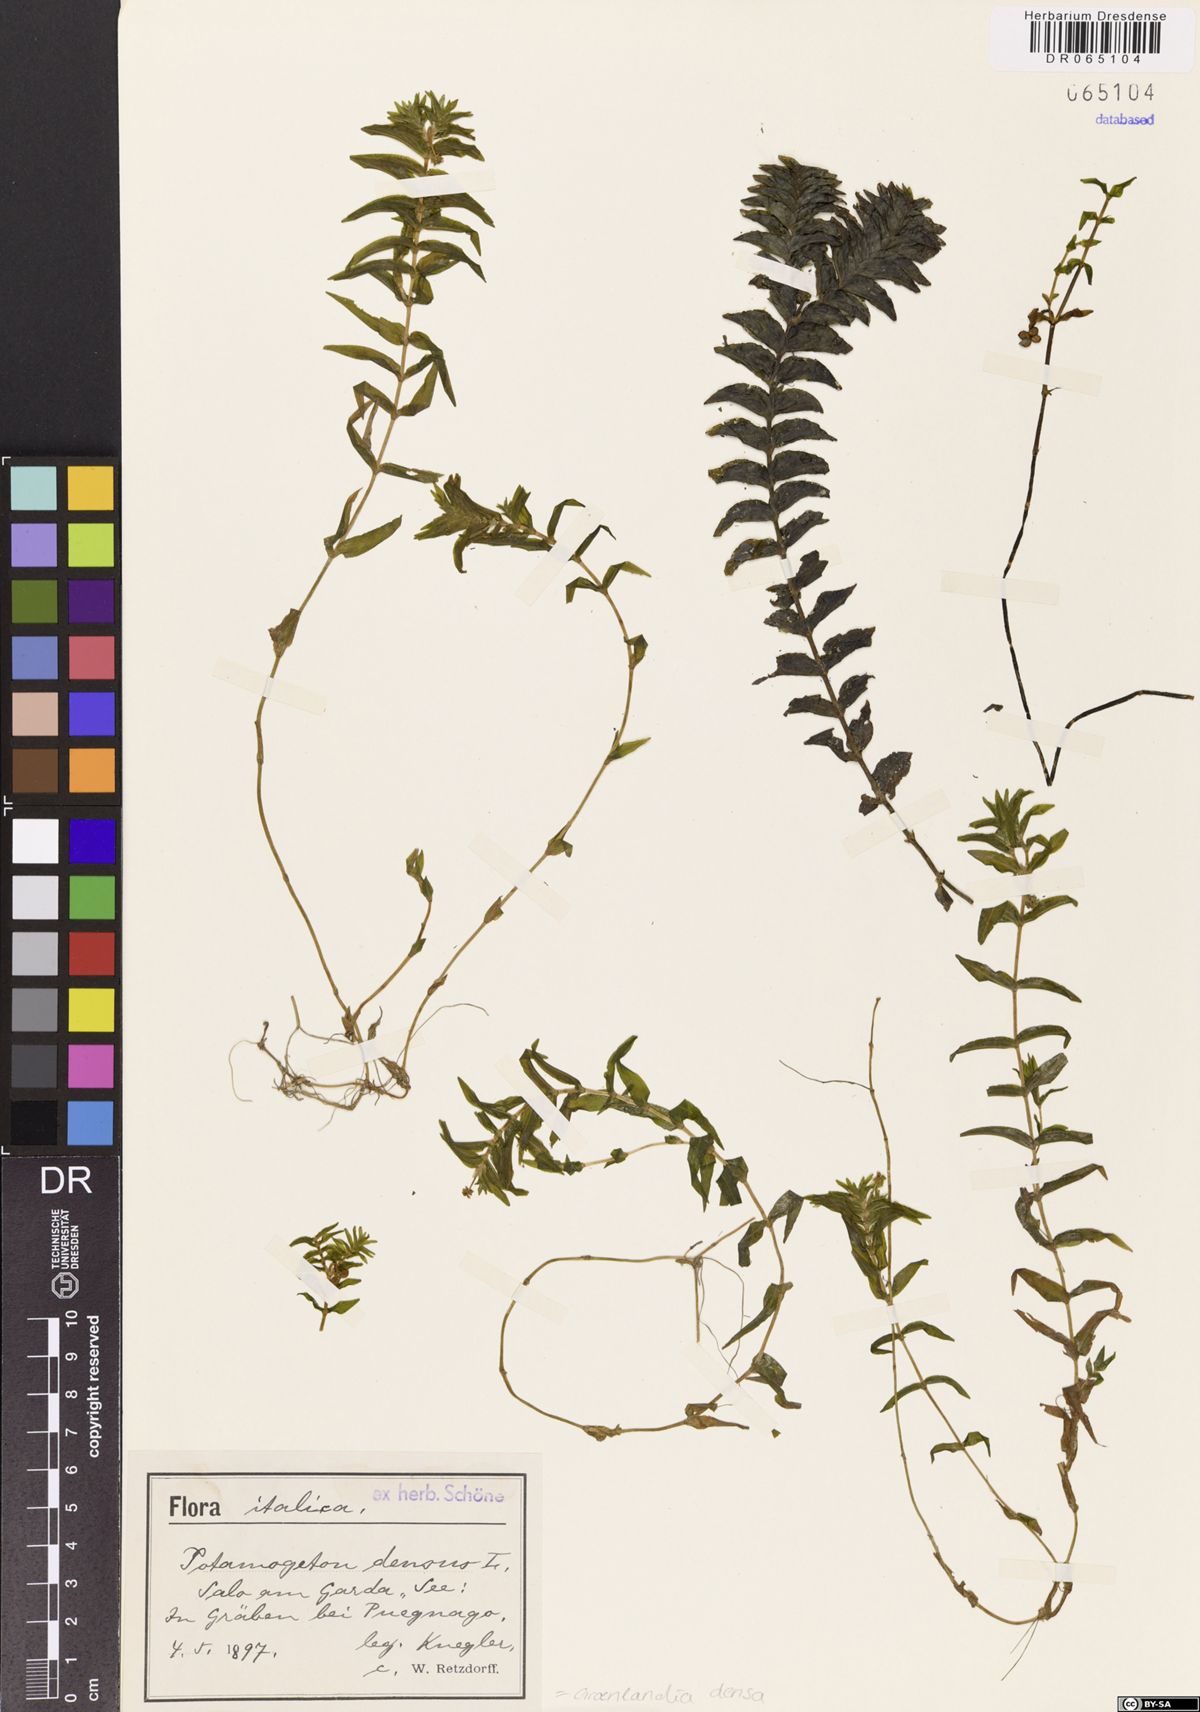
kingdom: Plantae
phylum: Tracheophyta
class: Liliopsida
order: Alismatales
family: Potamogetonaceae
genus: Groenlandia
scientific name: Groenlandia densa
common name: Opposite-leaved pondweed
